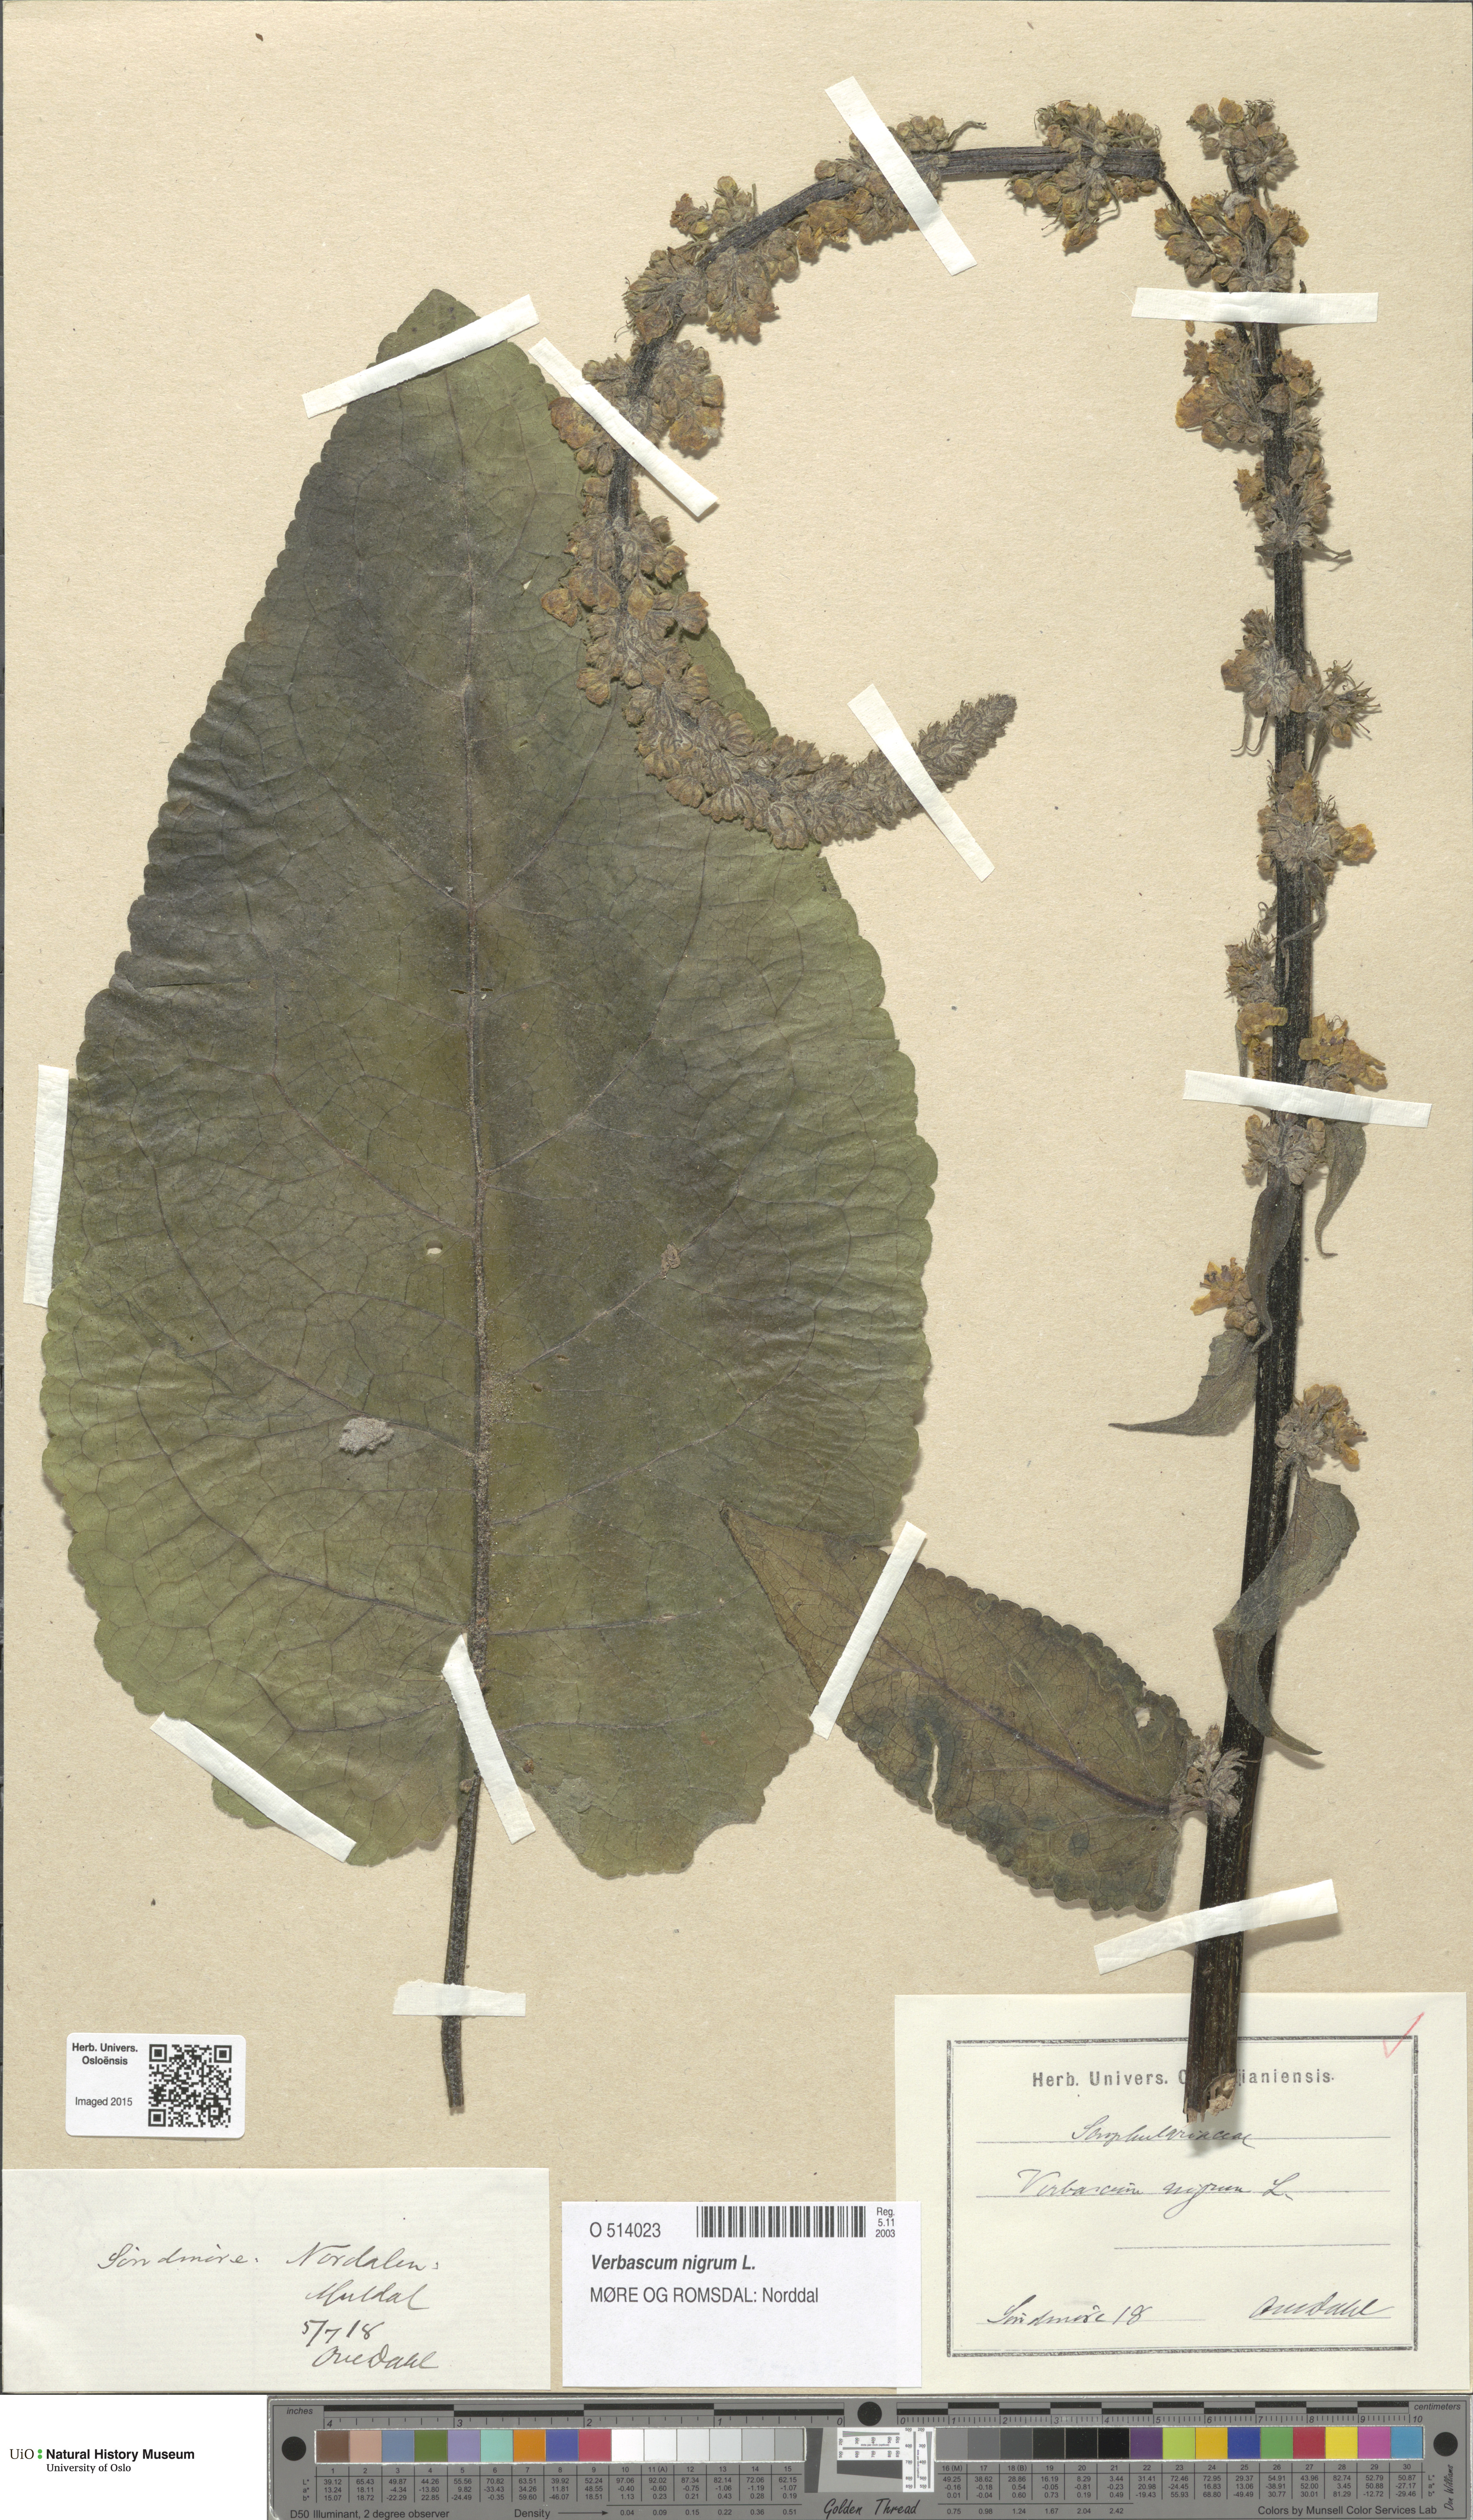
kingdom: Plantae
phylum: Tracheophyta
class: Magnoliopsida
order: Lamiales
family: Scrophulariaceae
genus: Verbascum
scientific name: Verbascum nigrum
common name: Dark mullein
